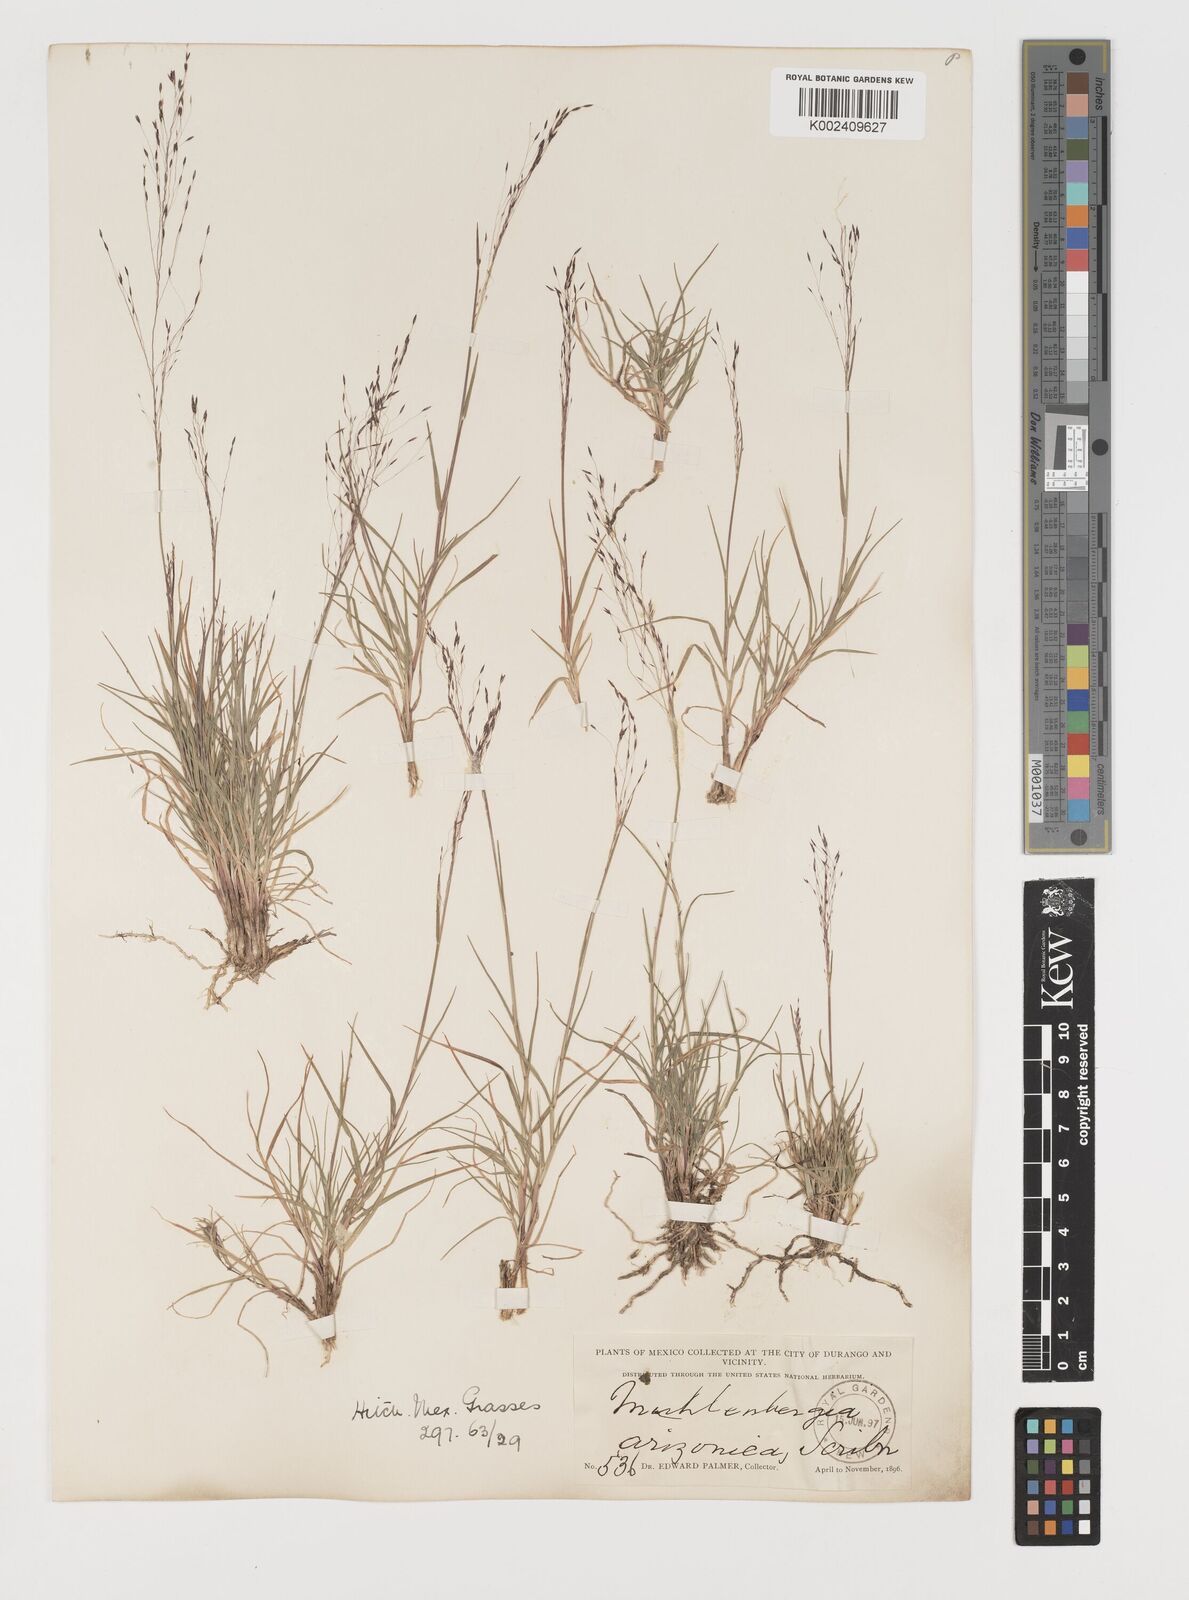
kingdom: Plantae
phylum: Tracheophyta
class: Liliopsida
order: Poales
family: Poaceae
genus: Muhlenbergia
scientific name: Muhlenbergia arizonica
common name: Arizona muhly
